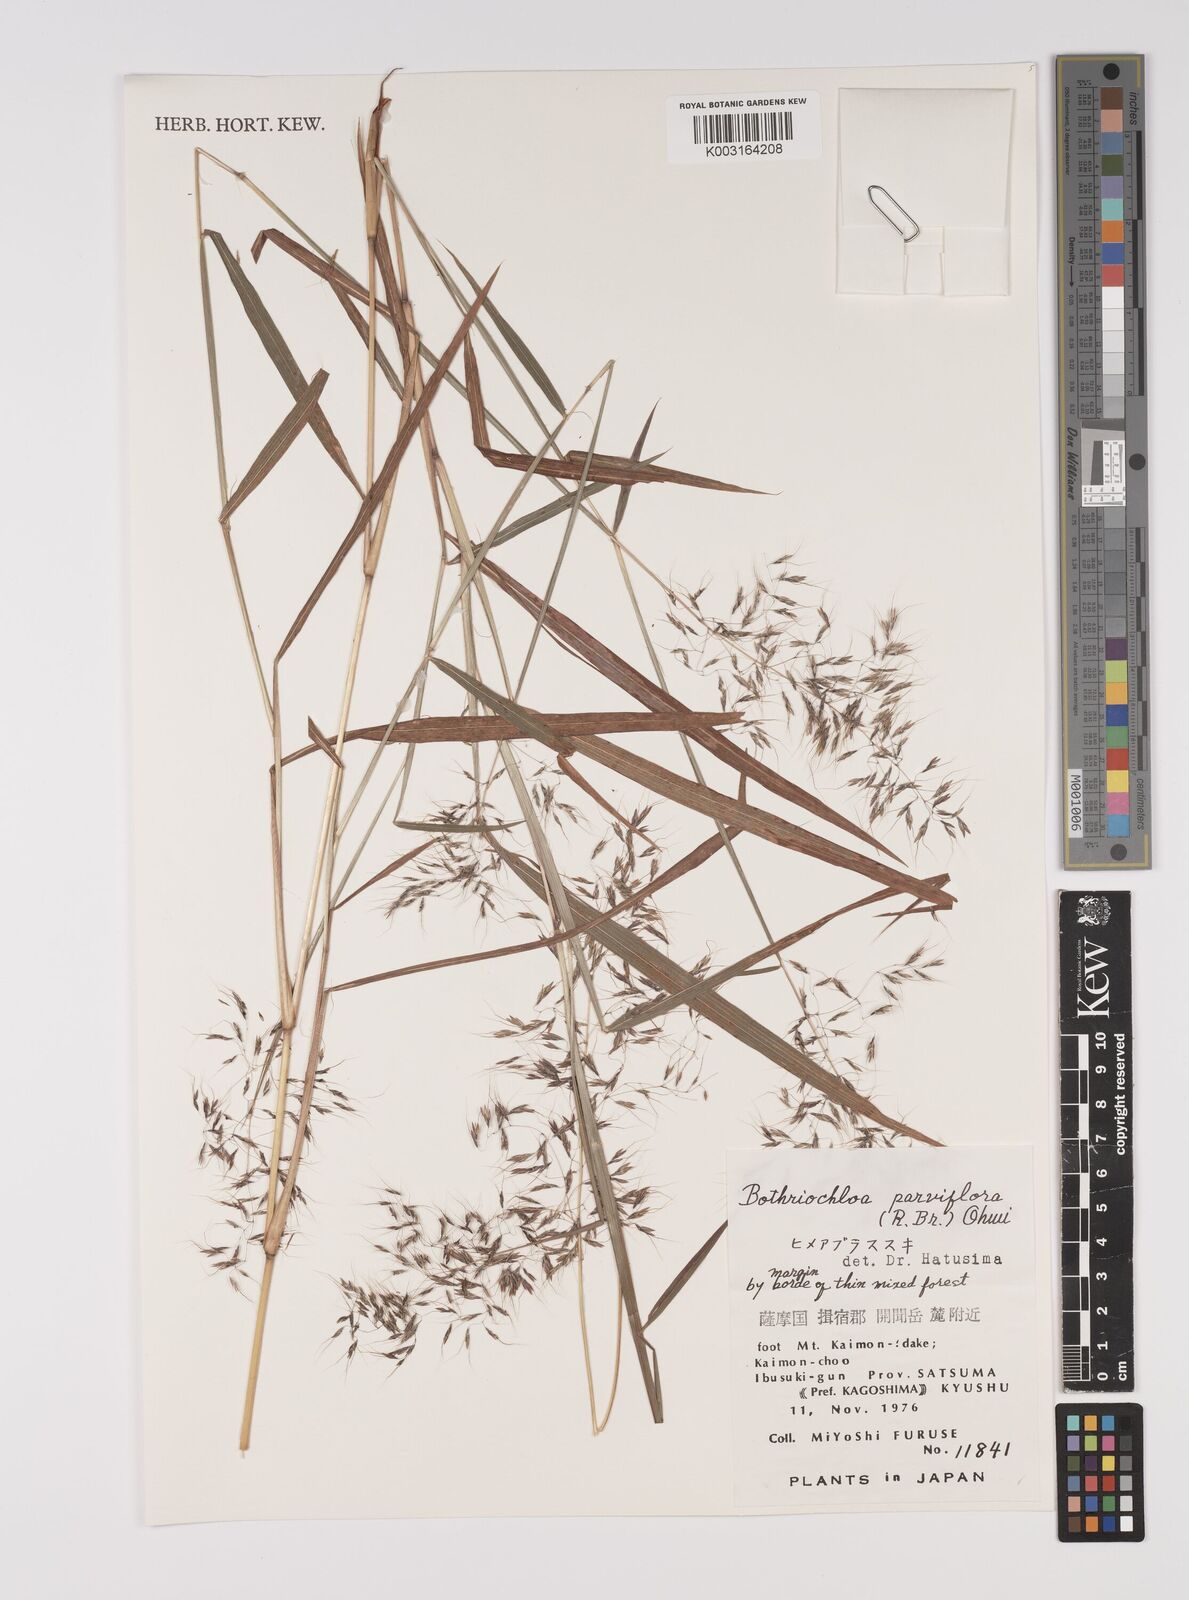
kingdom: Plantae
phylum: Tracheophyta
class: Liliopsida
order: Poales
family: Poaceae
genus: Capillipedium
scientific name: Capillipedium parviflorum
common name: Golden-beard
